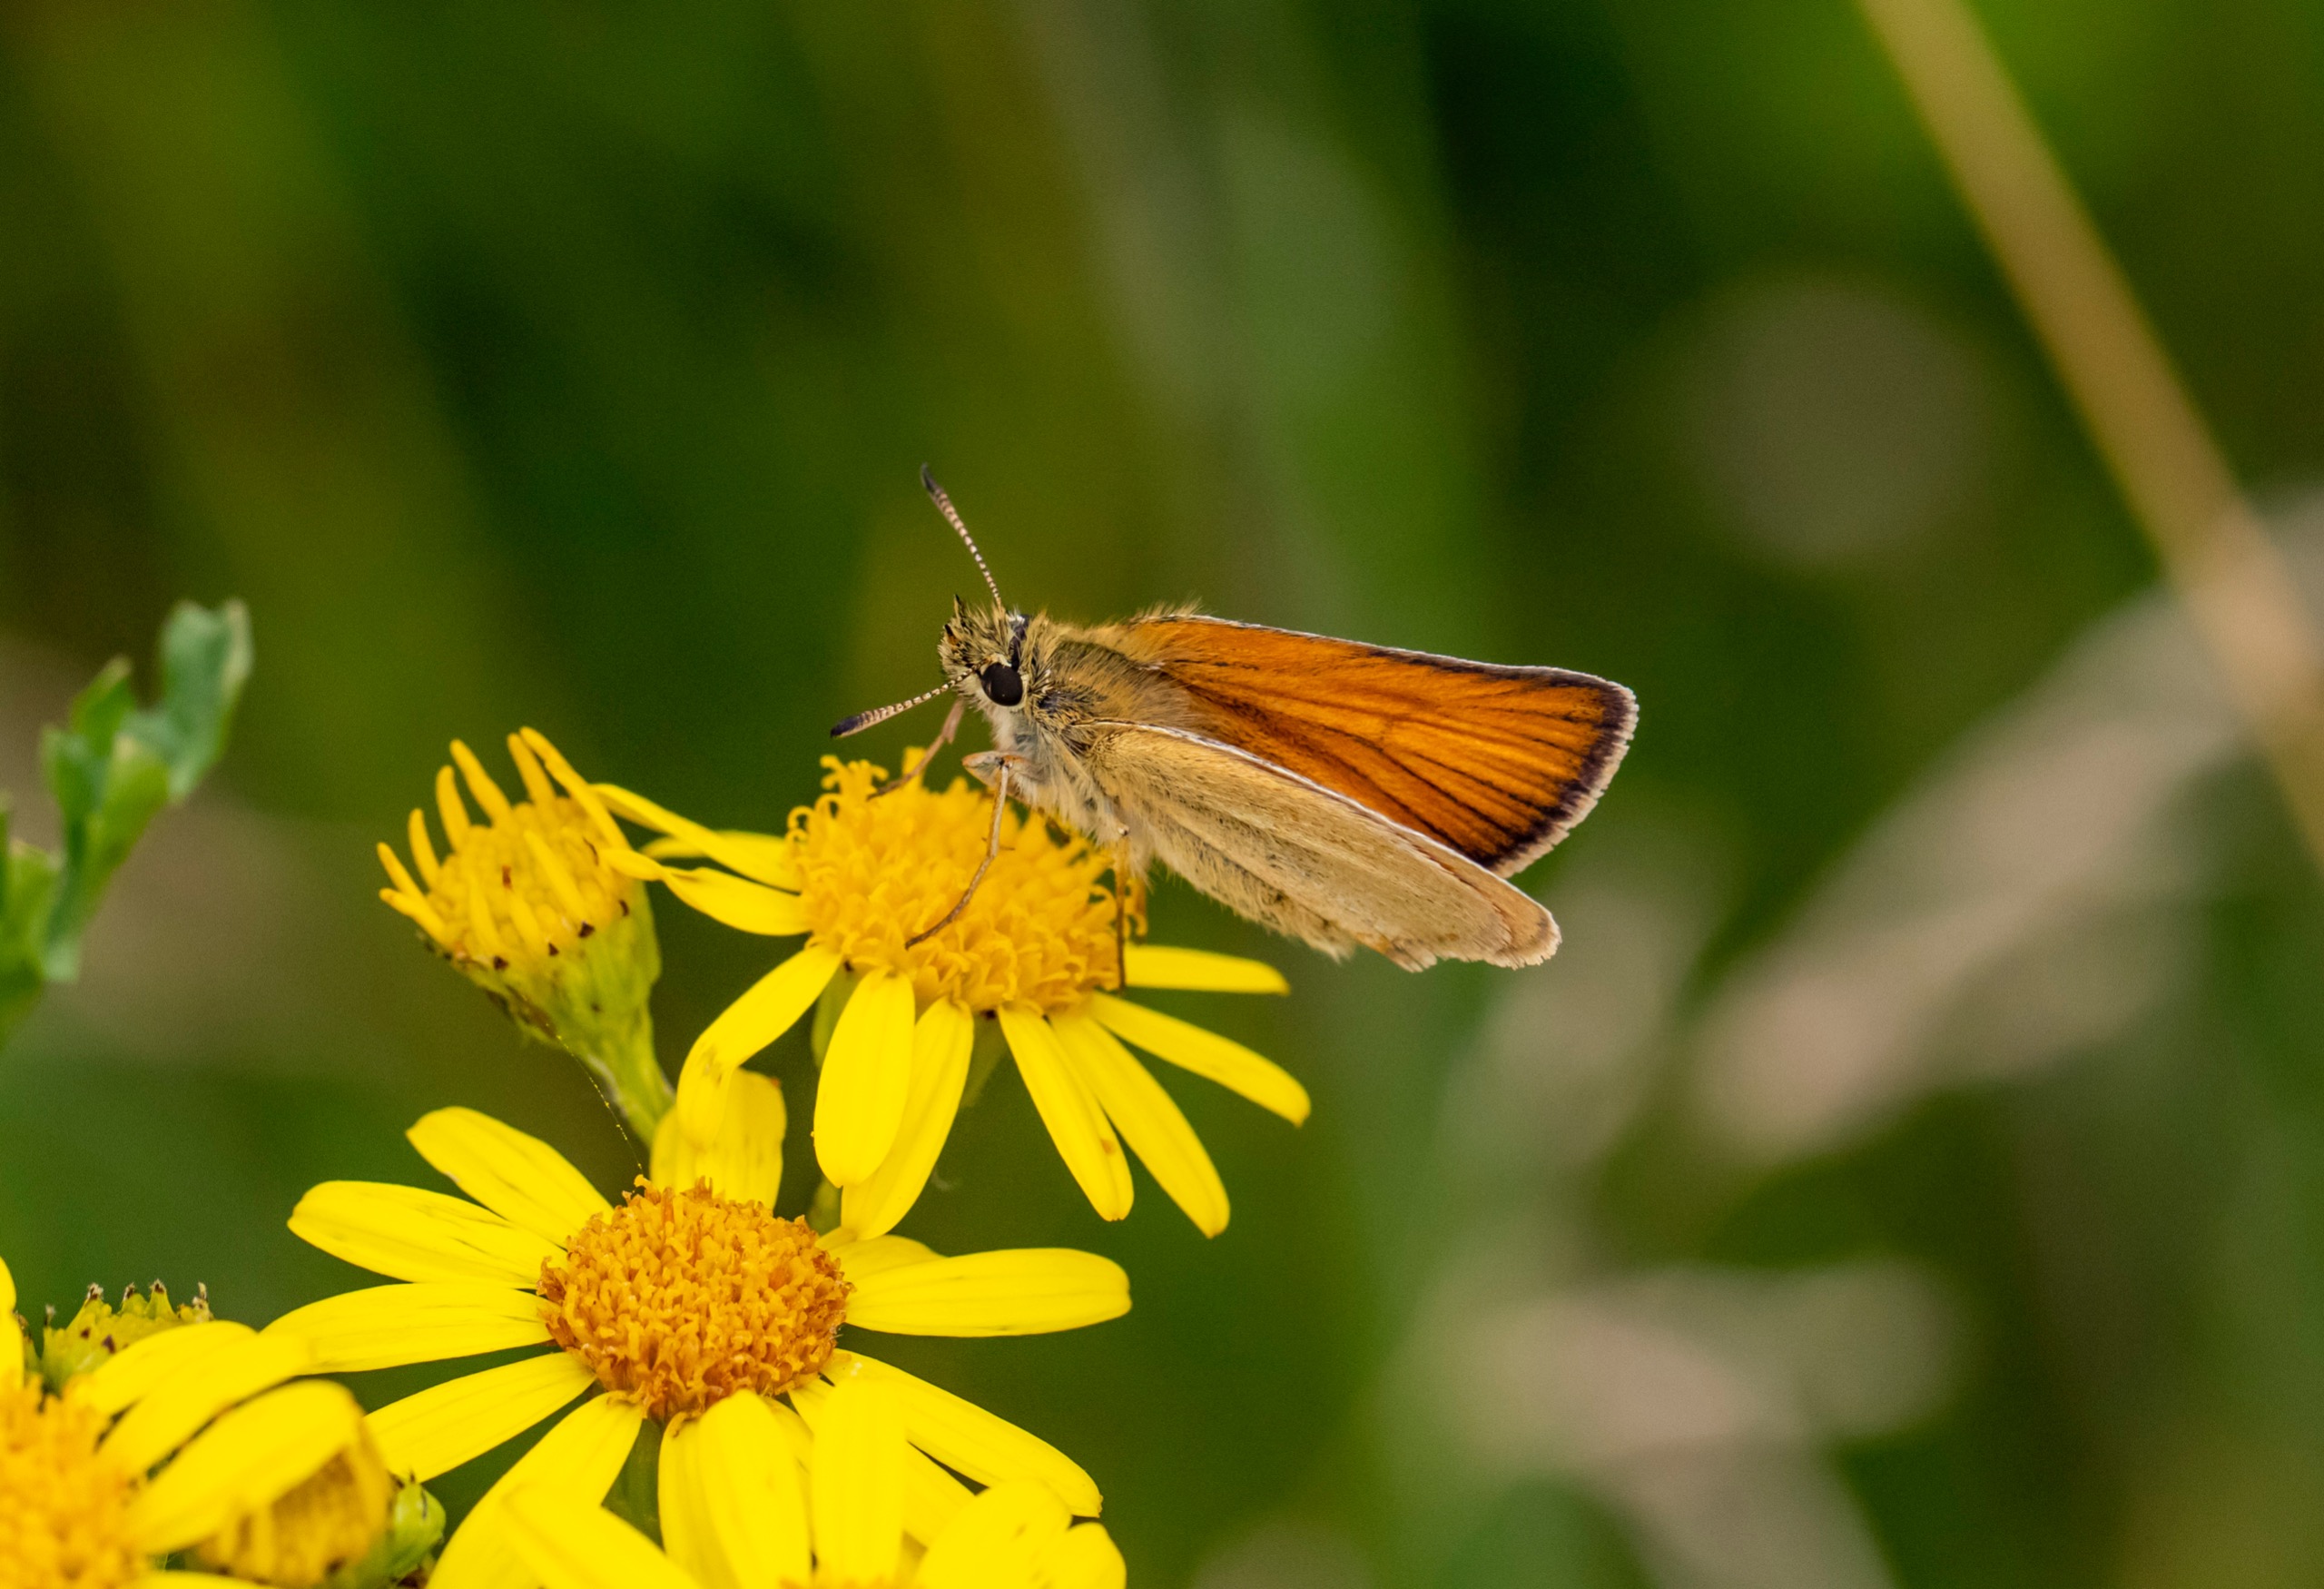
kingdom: Animalia
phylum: Arthropoda
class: Insecta
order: Lepidoptera
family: Hesperiidae
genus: Thymelicus
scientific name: Thymelicus lineola
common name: Stregbredpande
